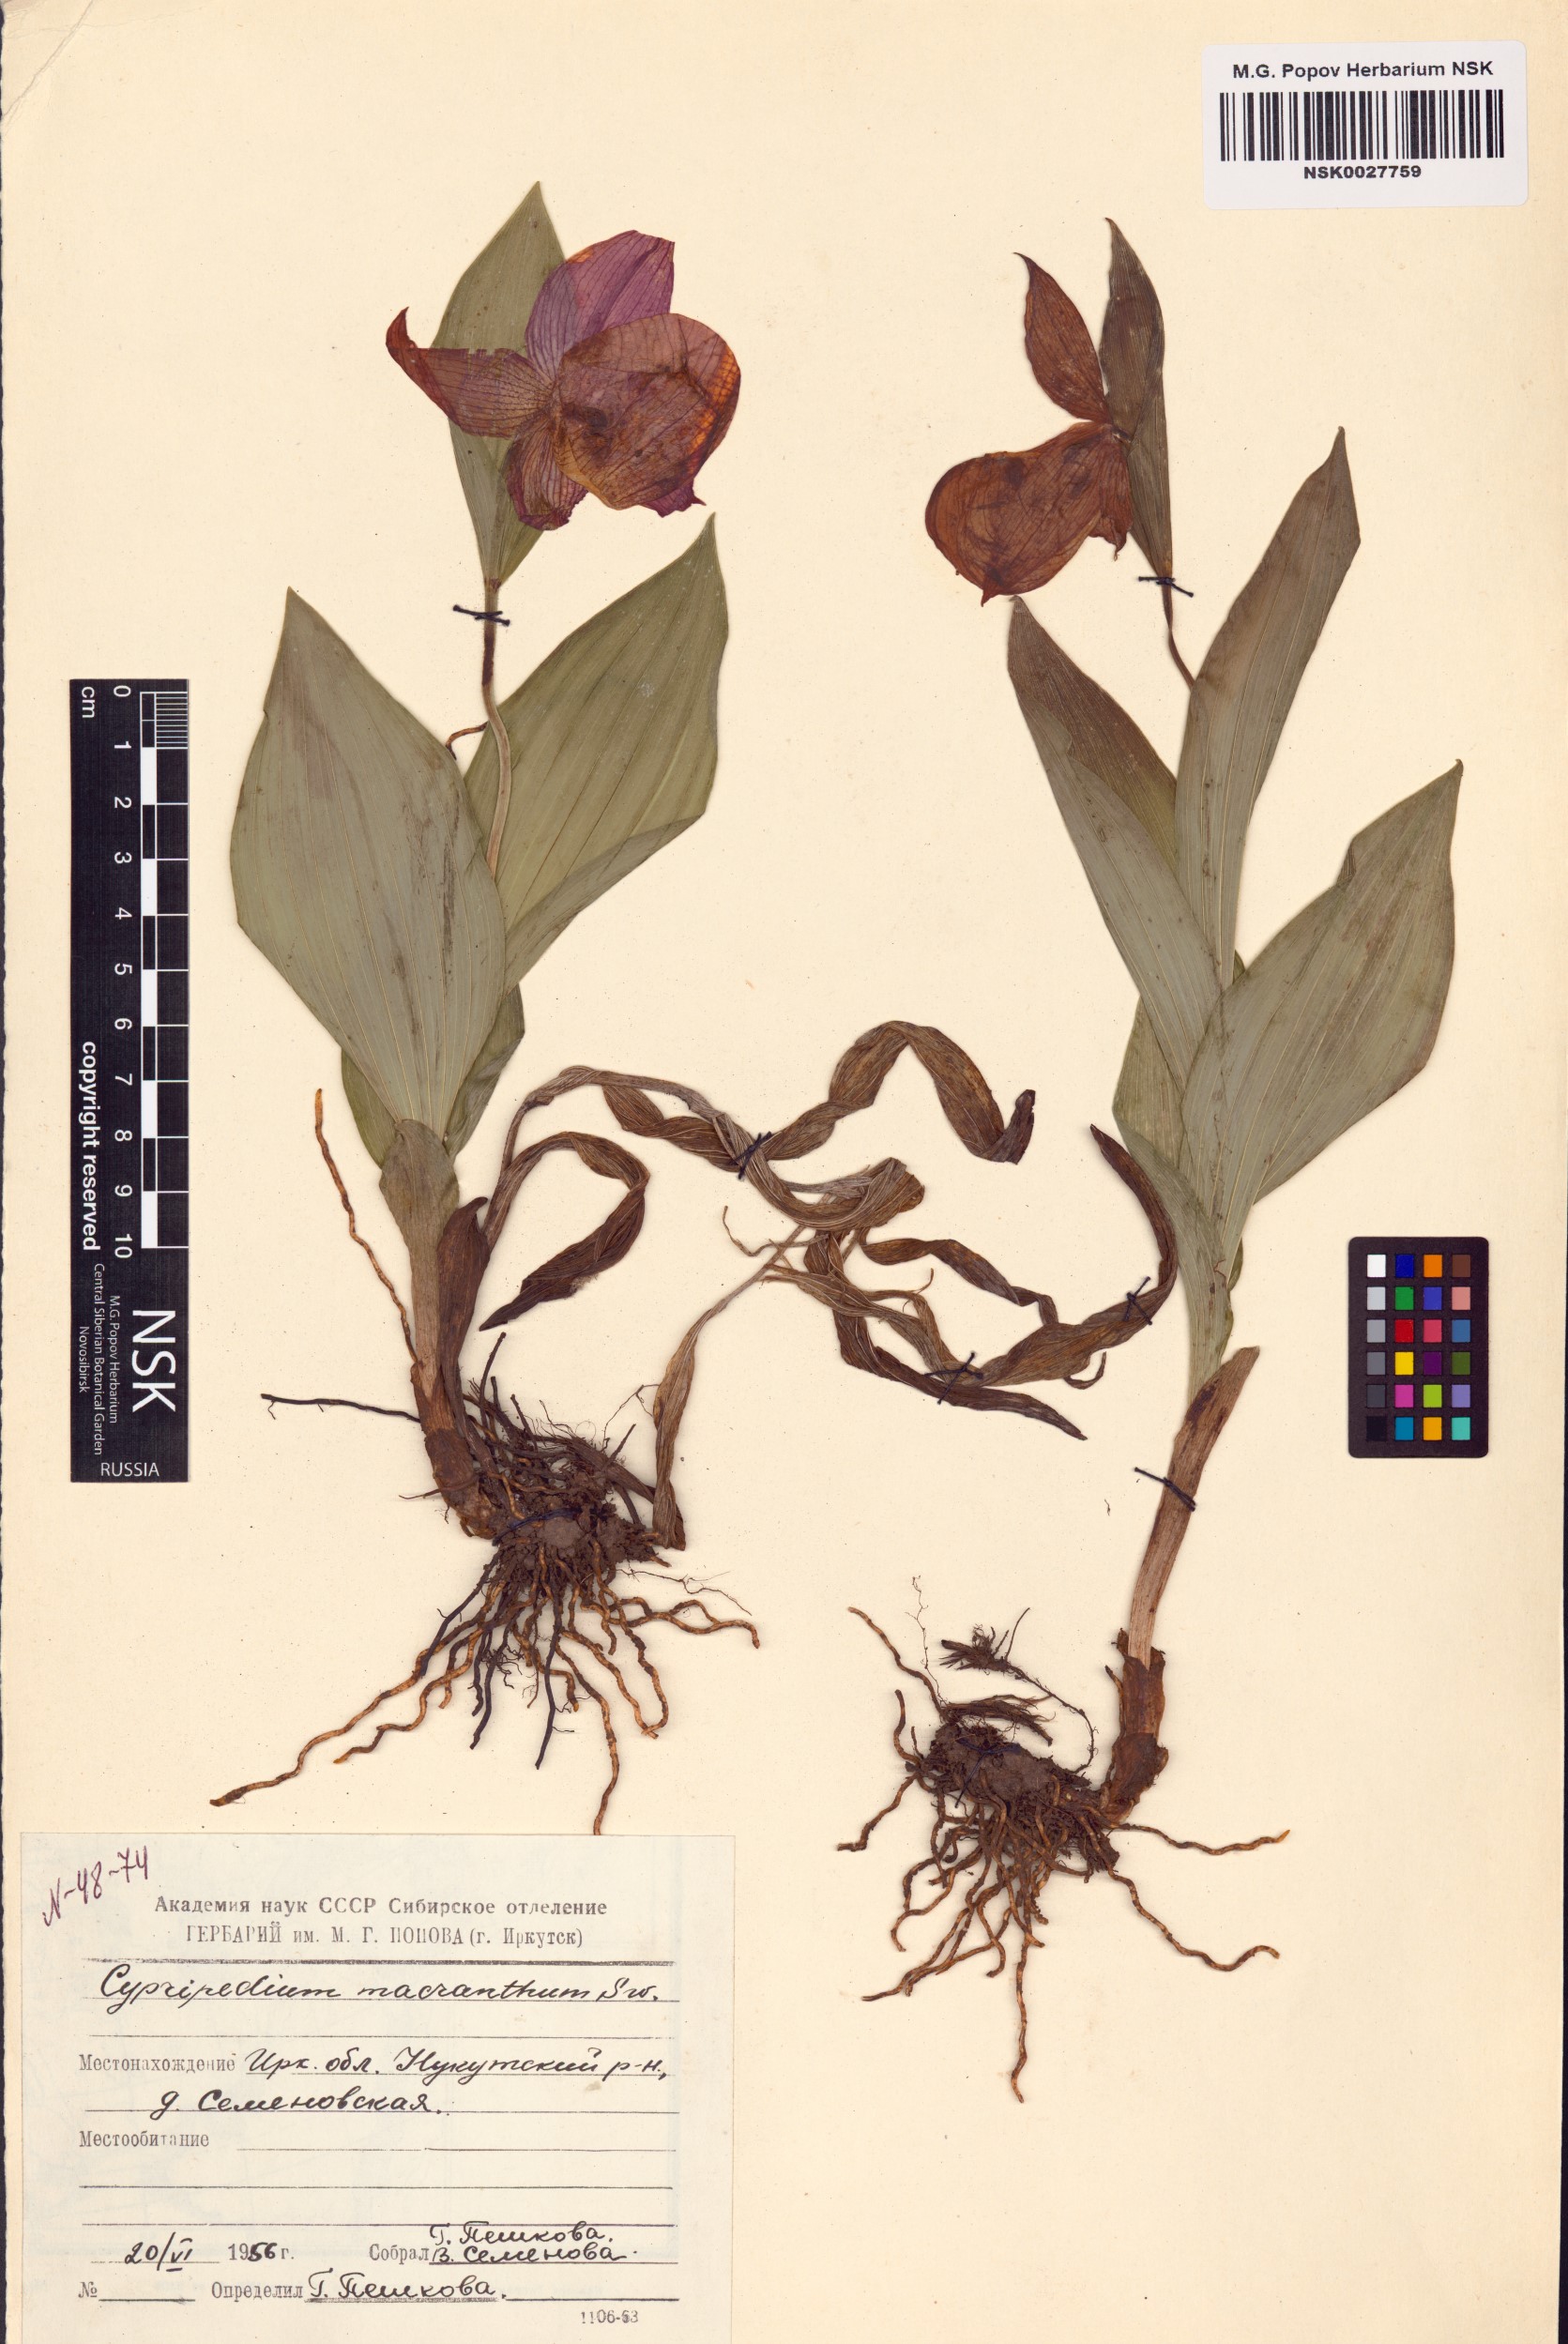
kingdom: Plantae
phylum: Tracheophyta
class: Liliopsida
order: Asparagales
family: Orchidaceae
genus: Cypripedium
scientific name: Cypripedium macranthos
